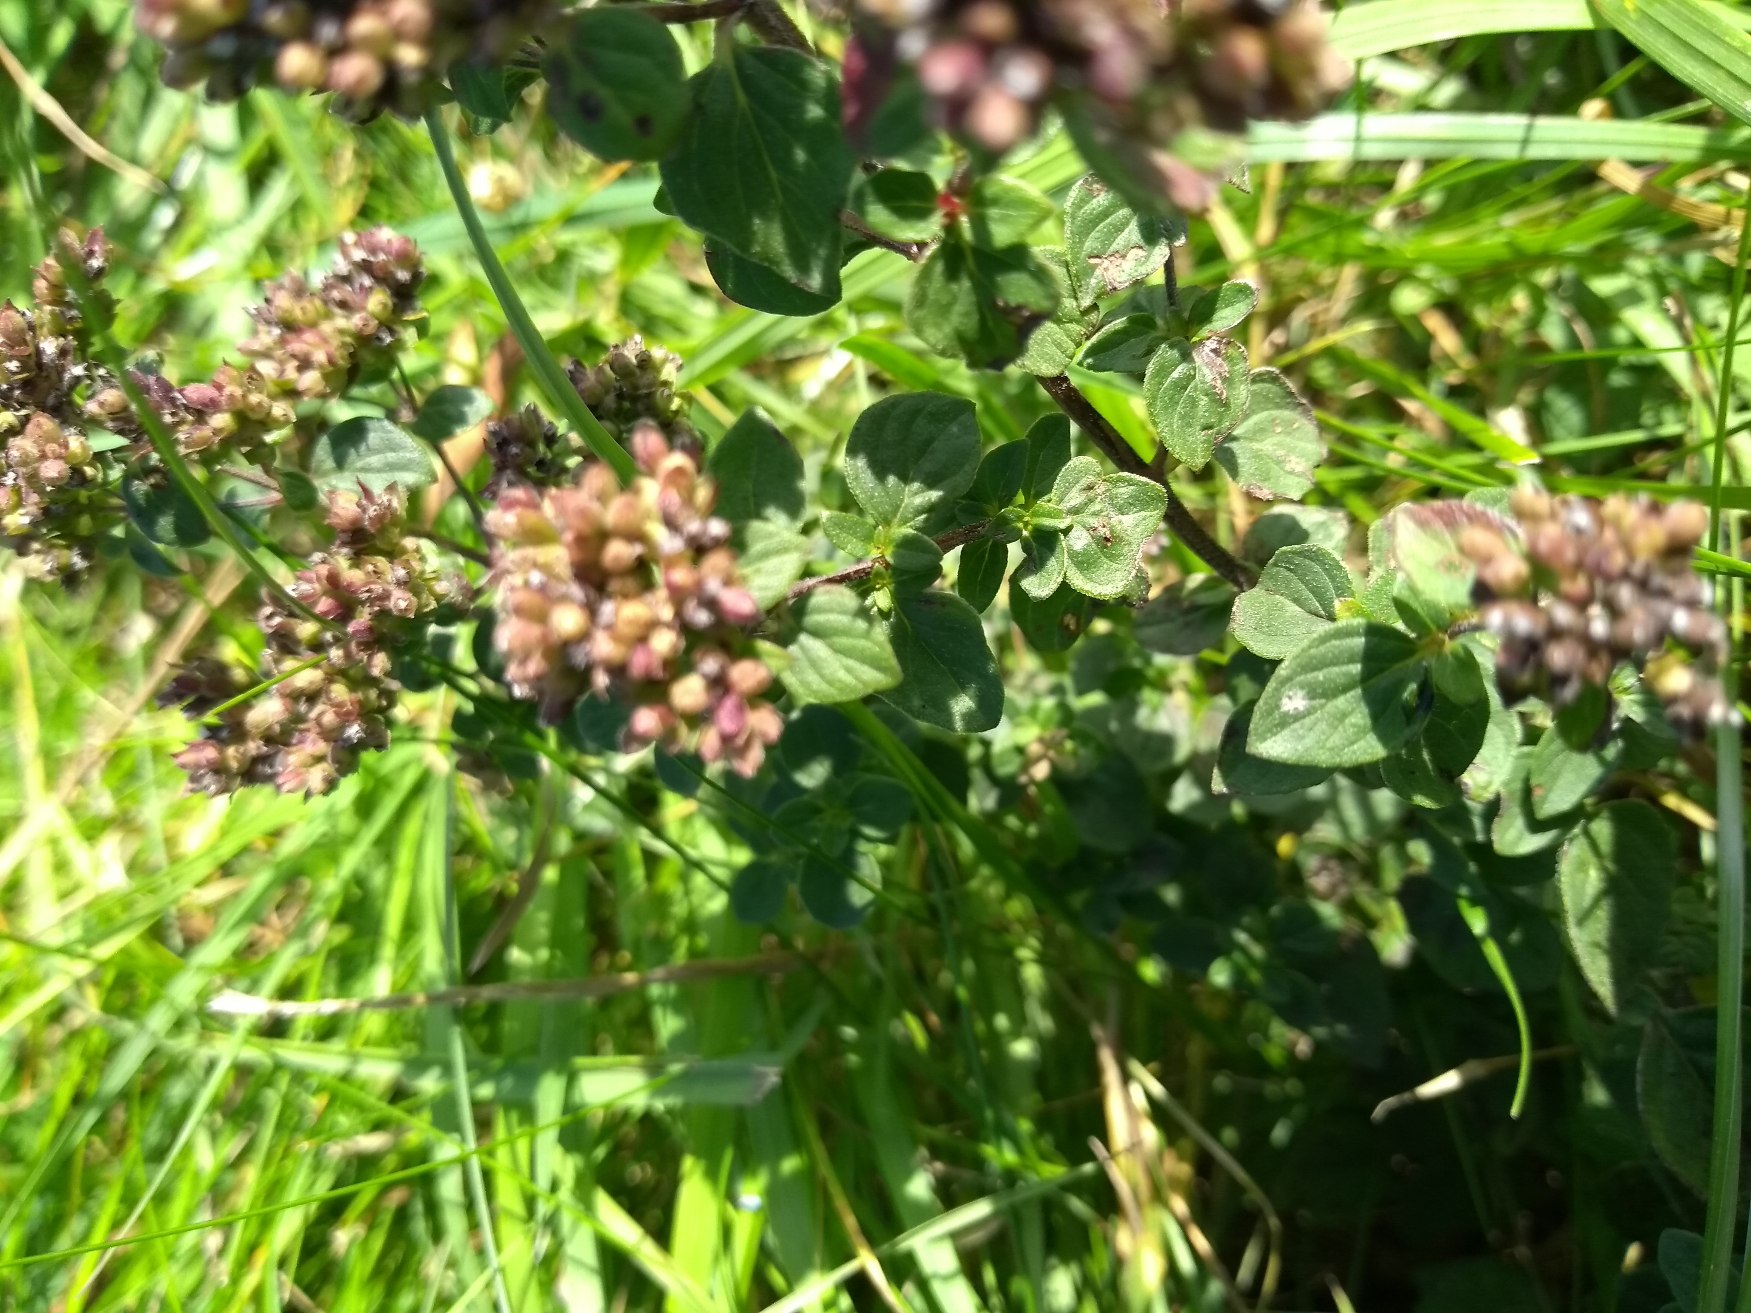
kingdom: Plantae
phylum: Tracheophyta
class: Magnoliopsida
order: Lamiales
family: Lamiaceae
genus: Origanum
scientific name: Origanum vulgare
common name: Merian
